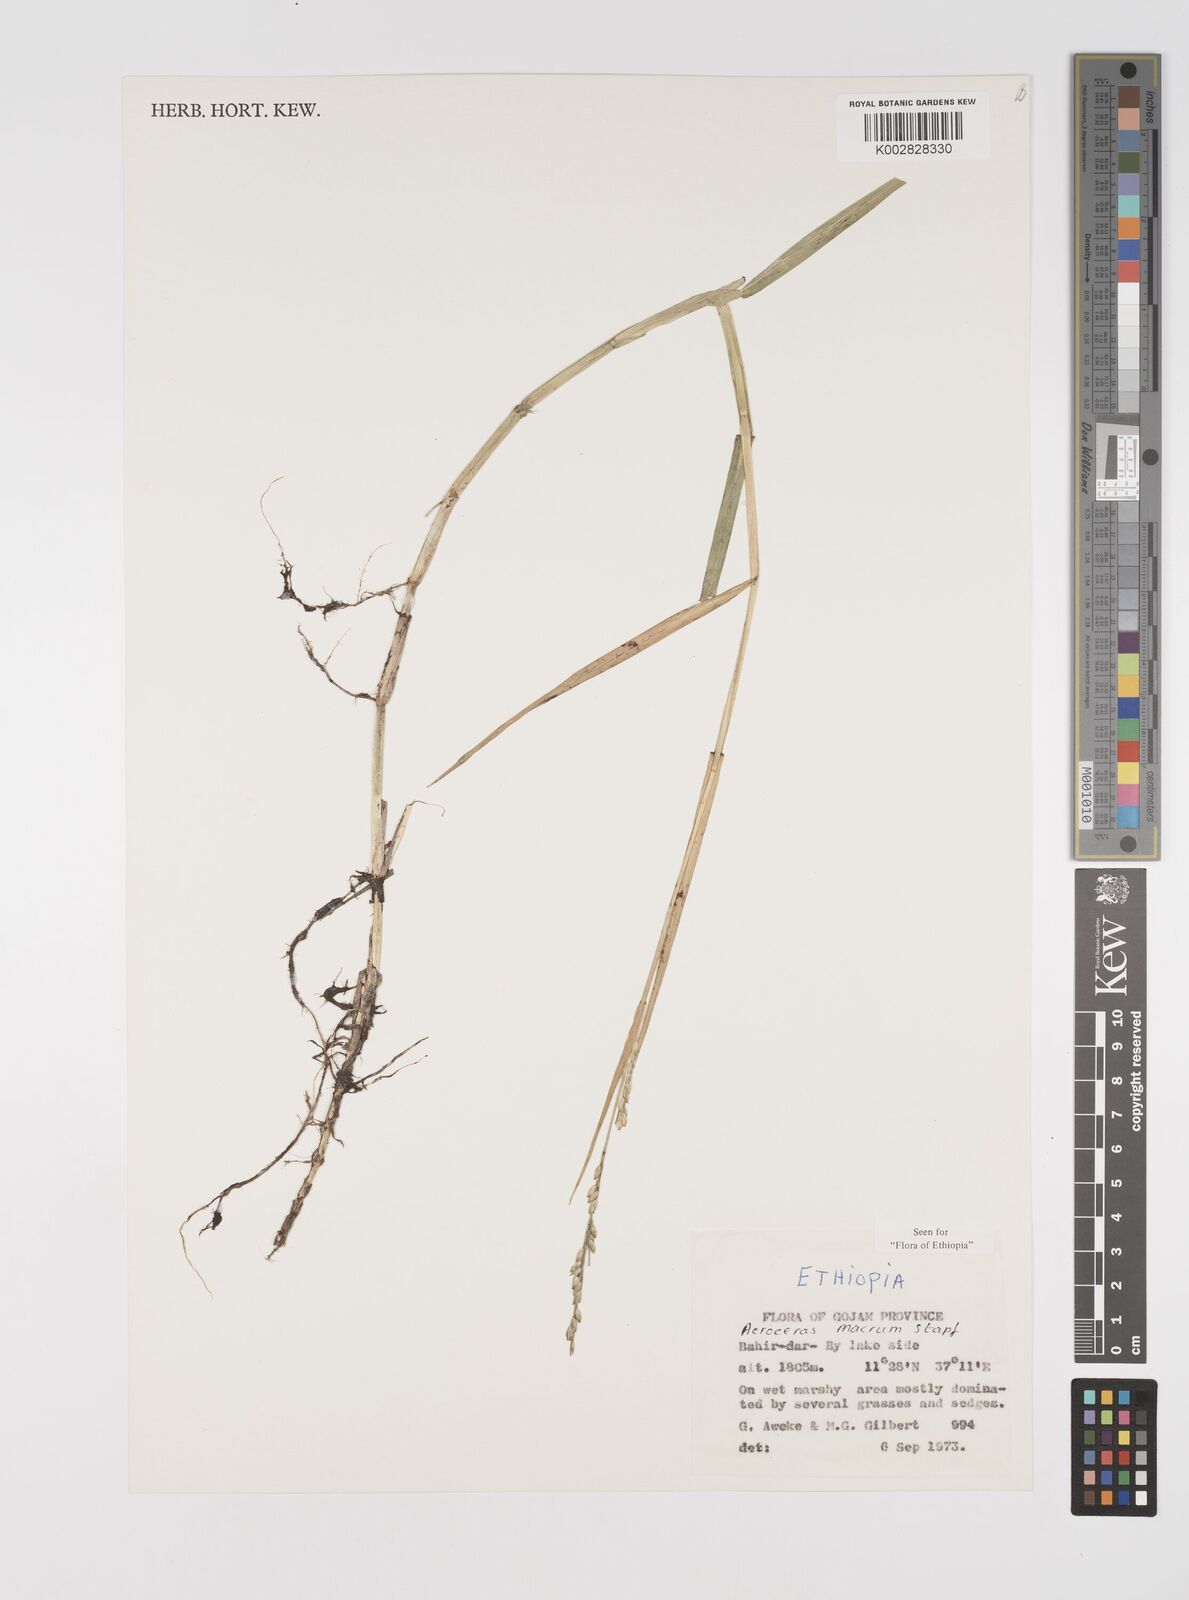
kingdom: Plantae
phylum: Tracheophyta
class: Liliopsida
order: Poales
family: Poaceae
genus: Acroceras
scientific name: Acroceras macrum
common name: Nyl grass
